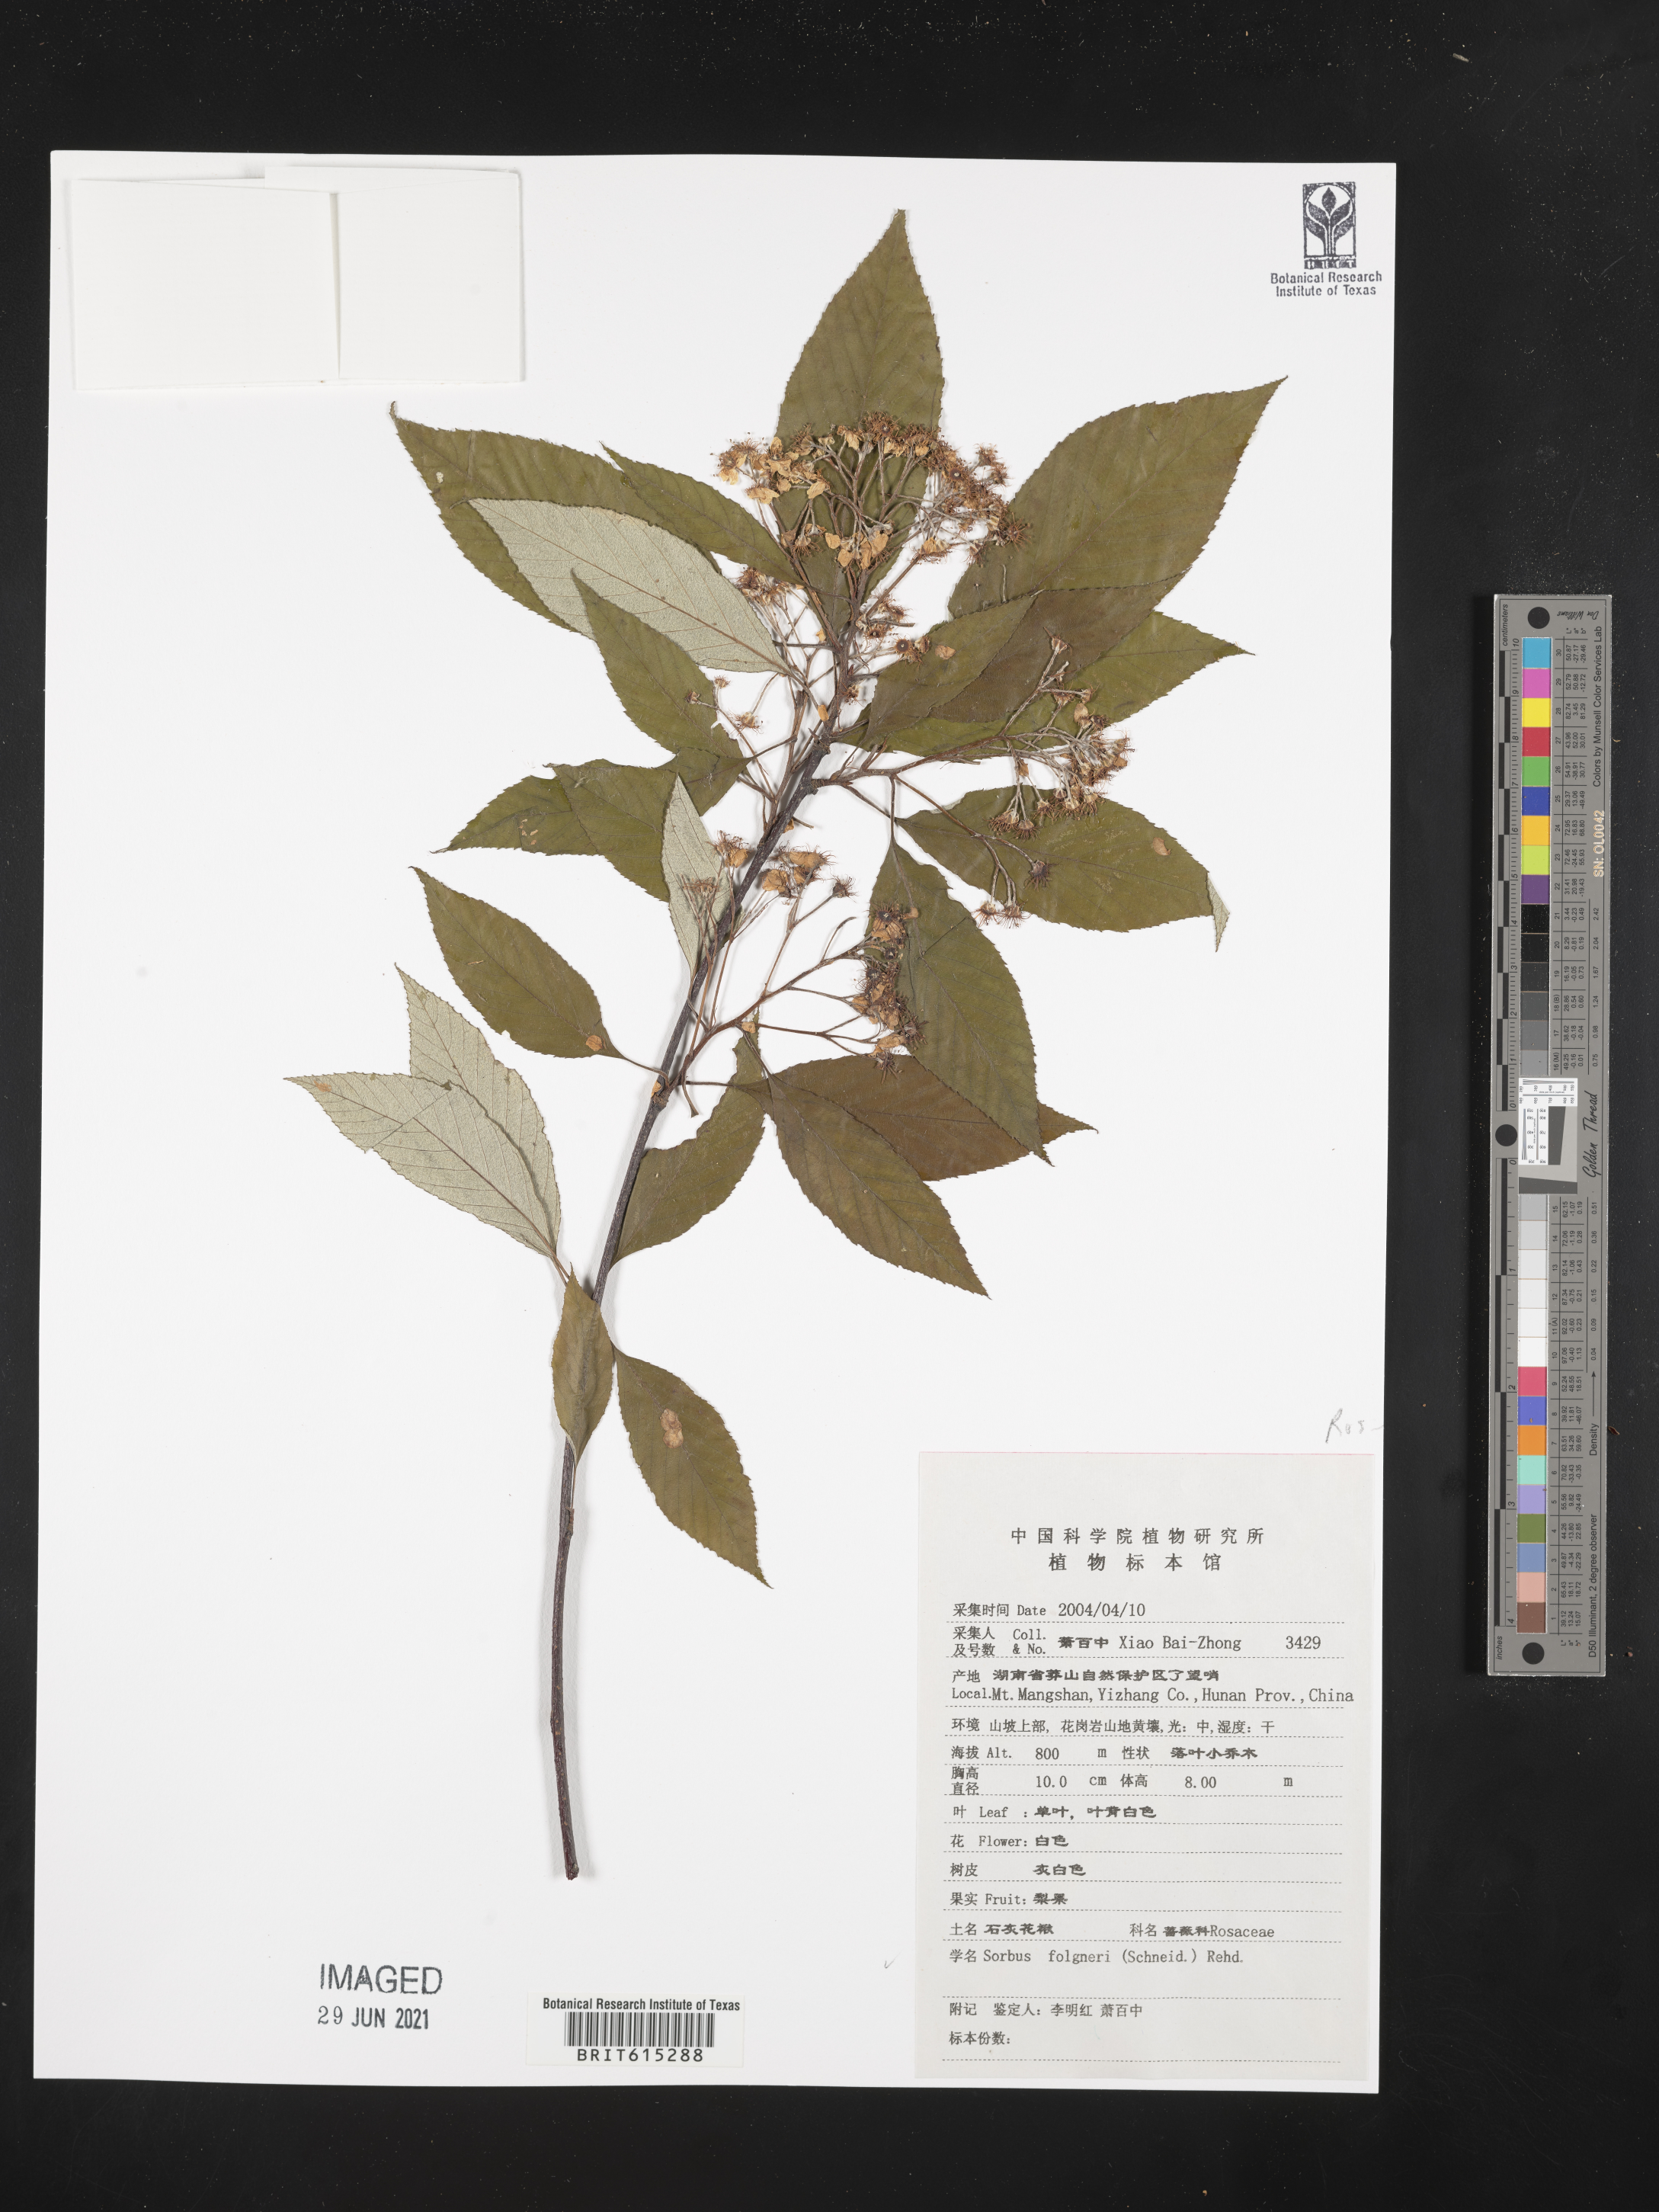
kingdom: Plantae
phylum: Tracheophyta
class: Magnoliopsida
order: Rosales
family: Rosaceae
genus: Sorbus
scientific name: Sorbus folgneri
